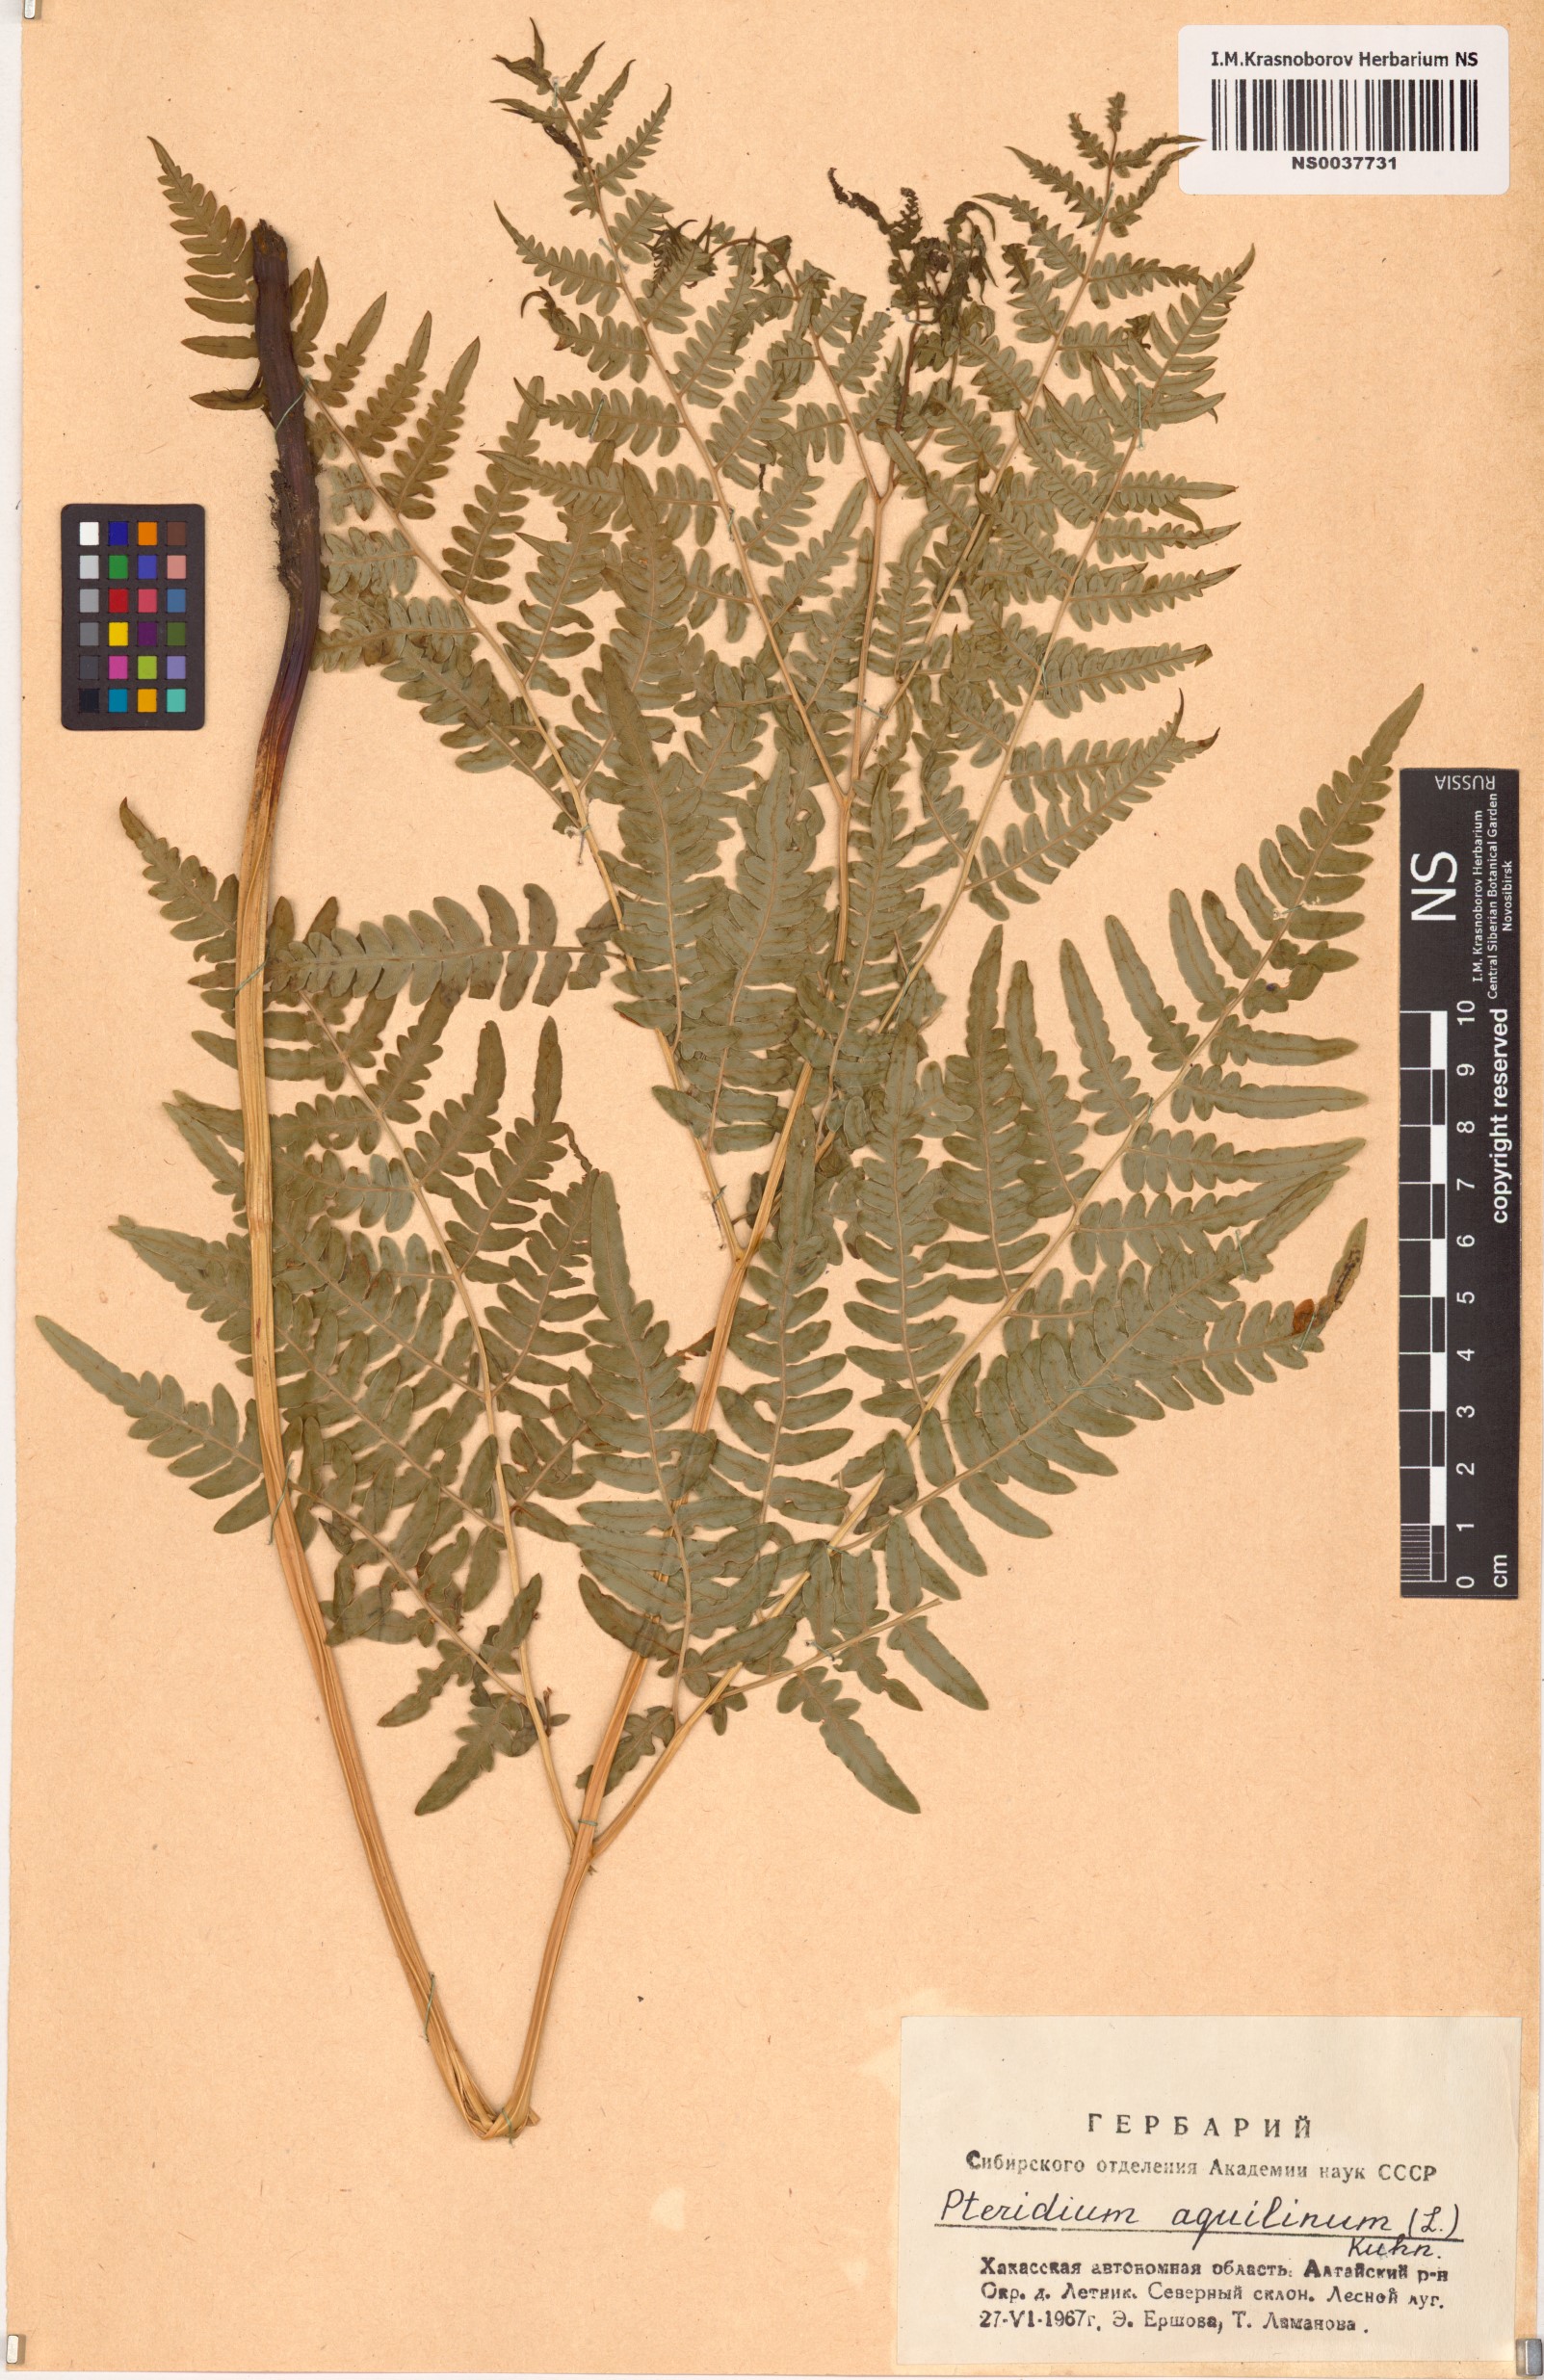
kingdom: Plantae
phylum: Tracheophyta
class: Polypodiopsida
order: Polypodiales
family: Dennstaedtiaceae
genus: Pteridium
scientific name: Pteridium aquilinum
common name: Bracken
